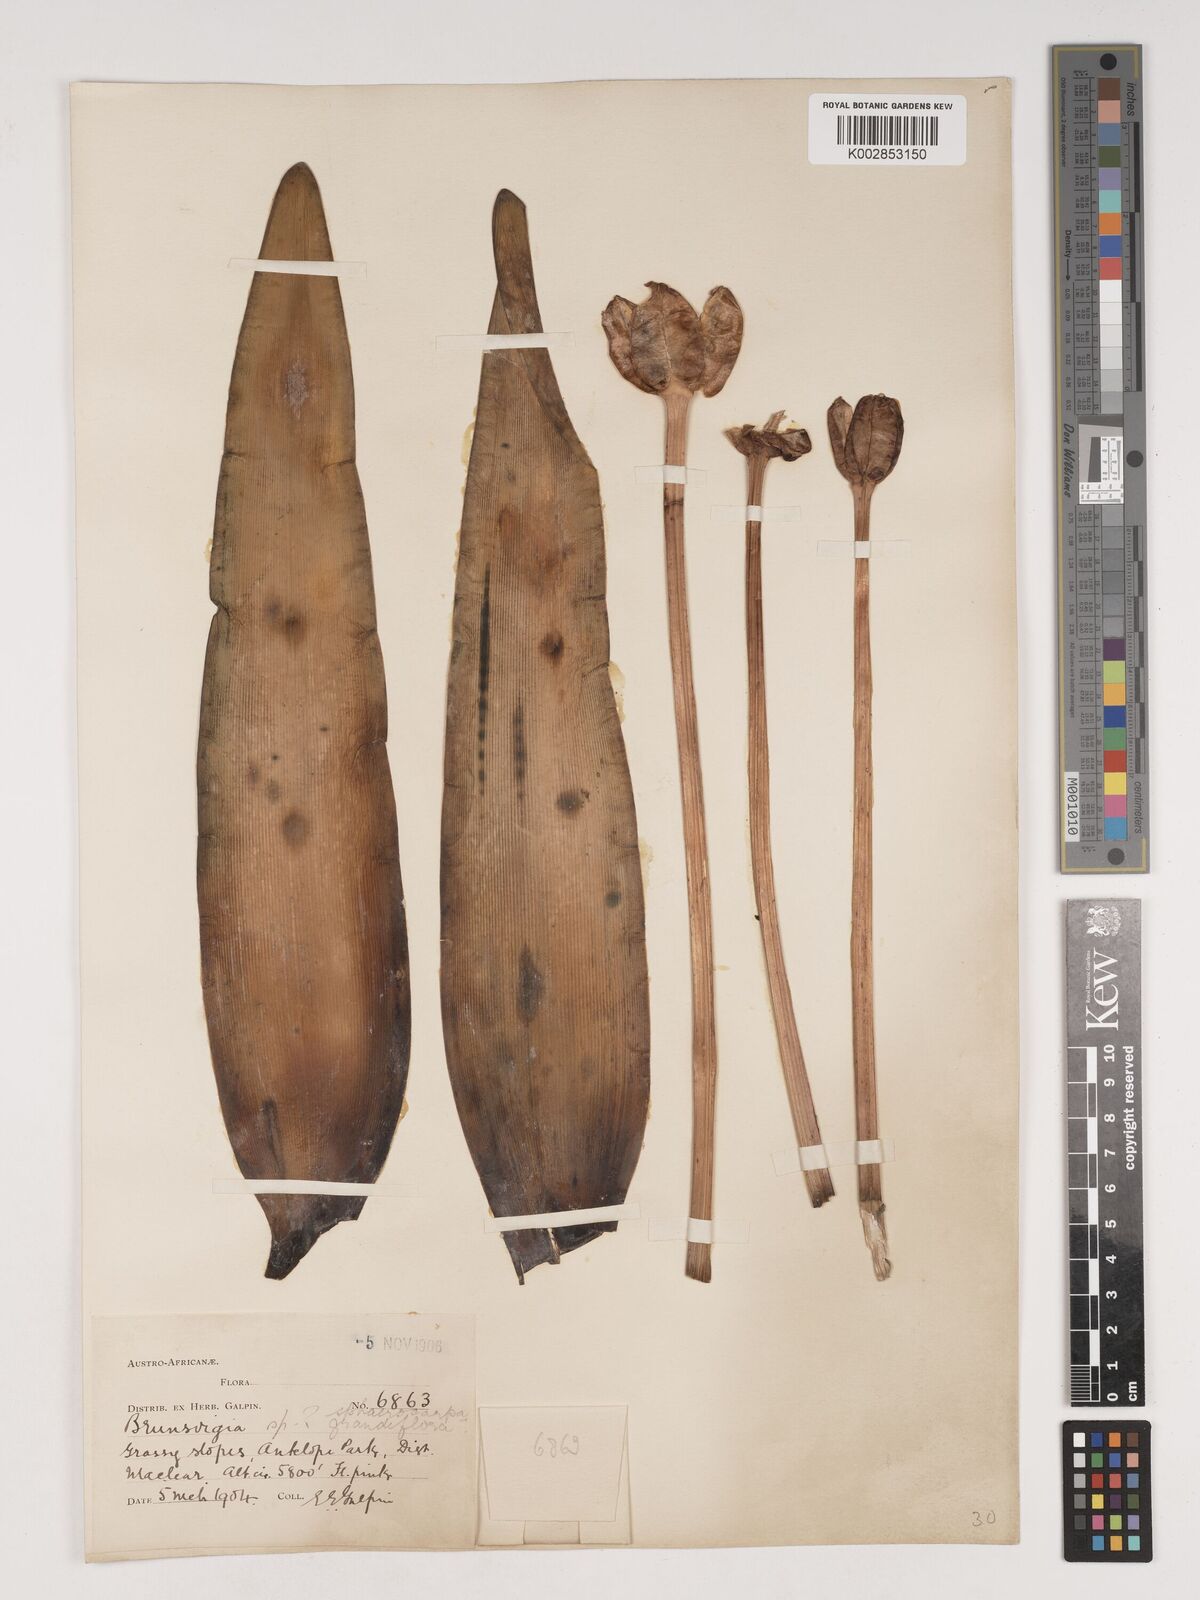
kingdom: Plantae
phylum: Tracheophyta
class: Liliopsida
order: Asparagales
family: Amaryllidaceae
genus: Brunsvigia
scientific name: Brunsvigia grandiflora
